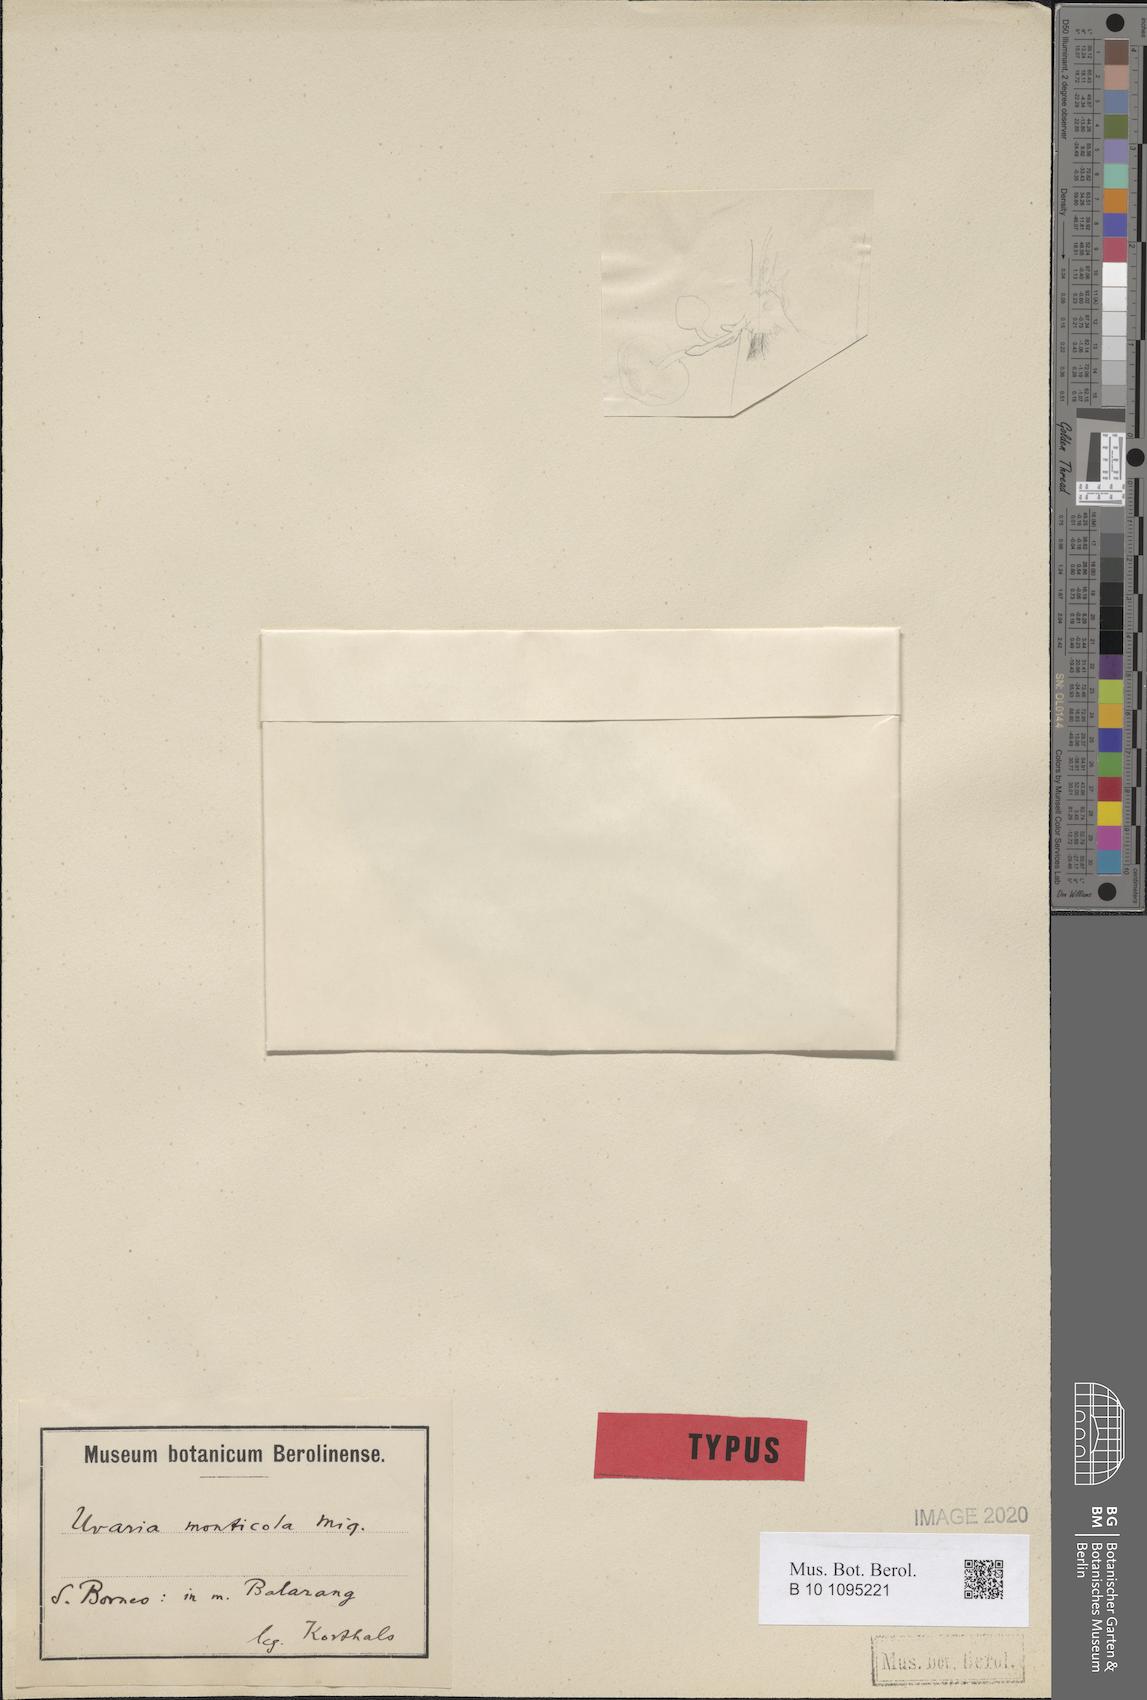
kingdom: Plantae
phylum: Tracheophyta
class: Magnoliopsida
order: Magnoliales
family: Annonaceae
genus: Uvaria
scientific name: Uvaria monticola
